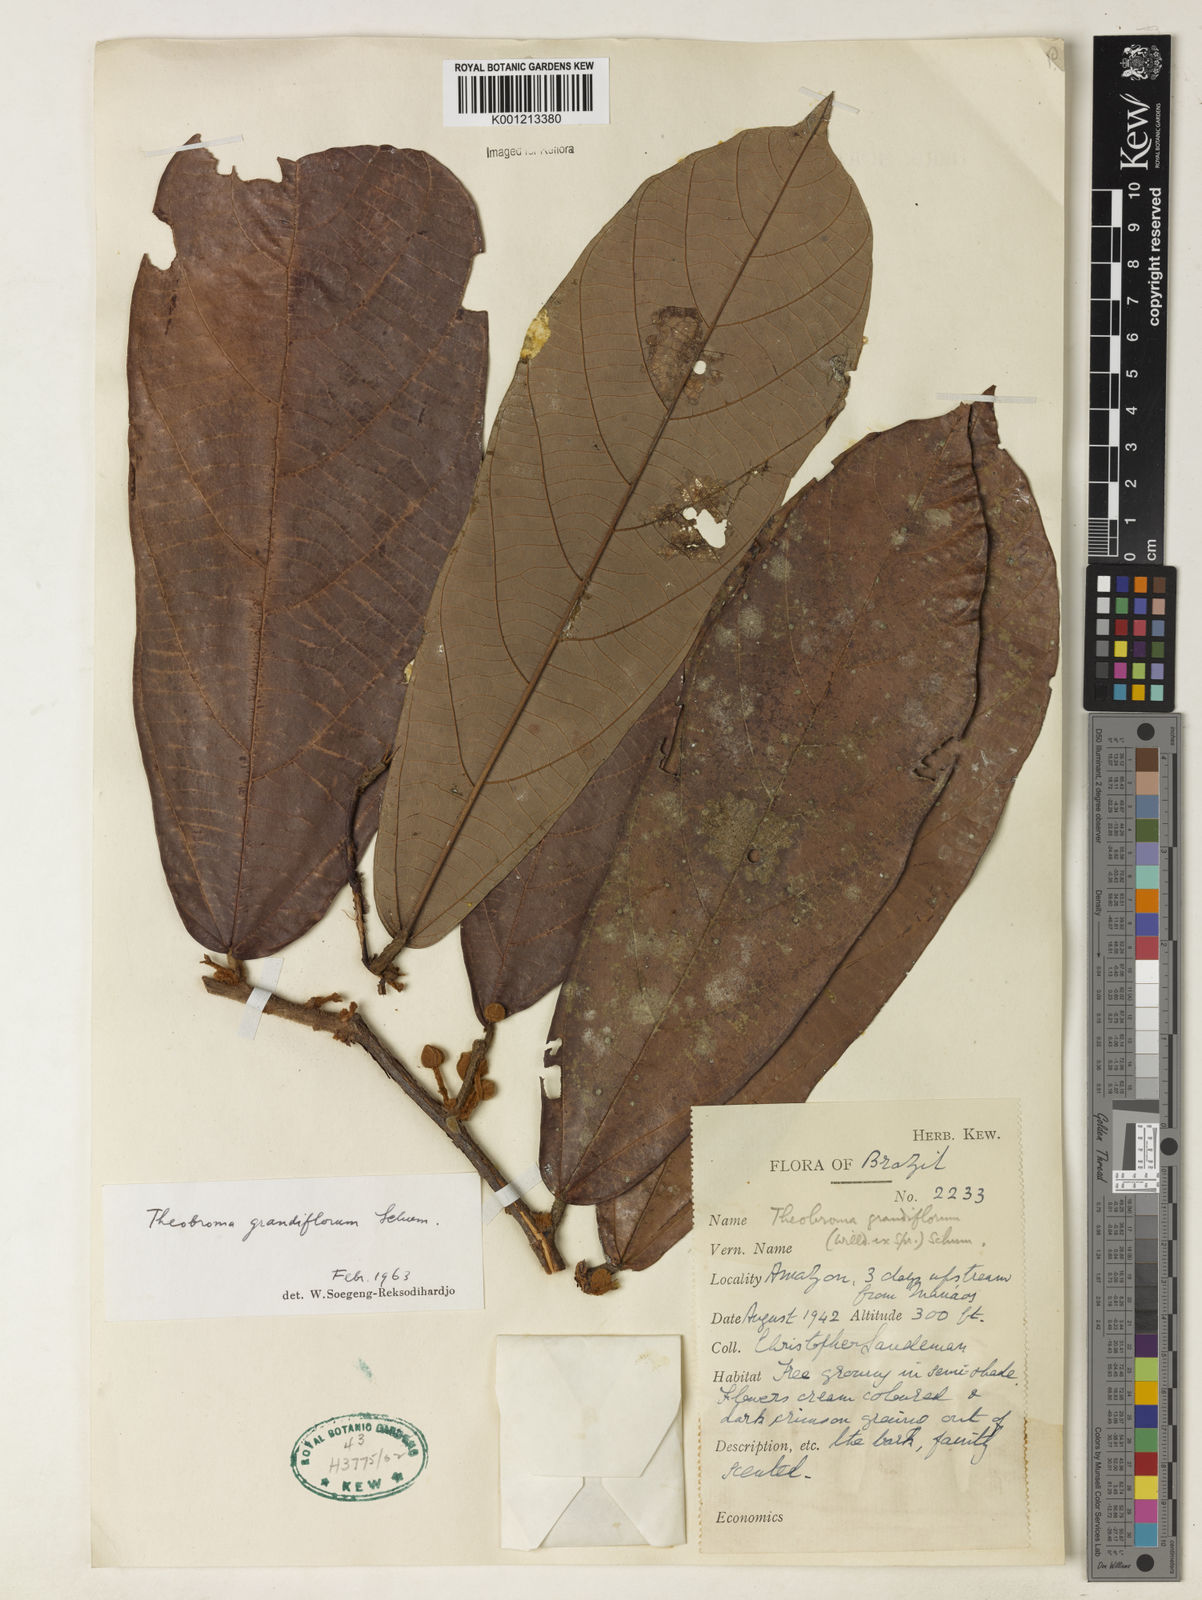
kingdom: Plantae
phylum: Tracheophyta
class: Magnoliopsida
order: Malvales
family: Malvaceae
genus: Theobroma
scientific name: Theobroma grandiflorum
